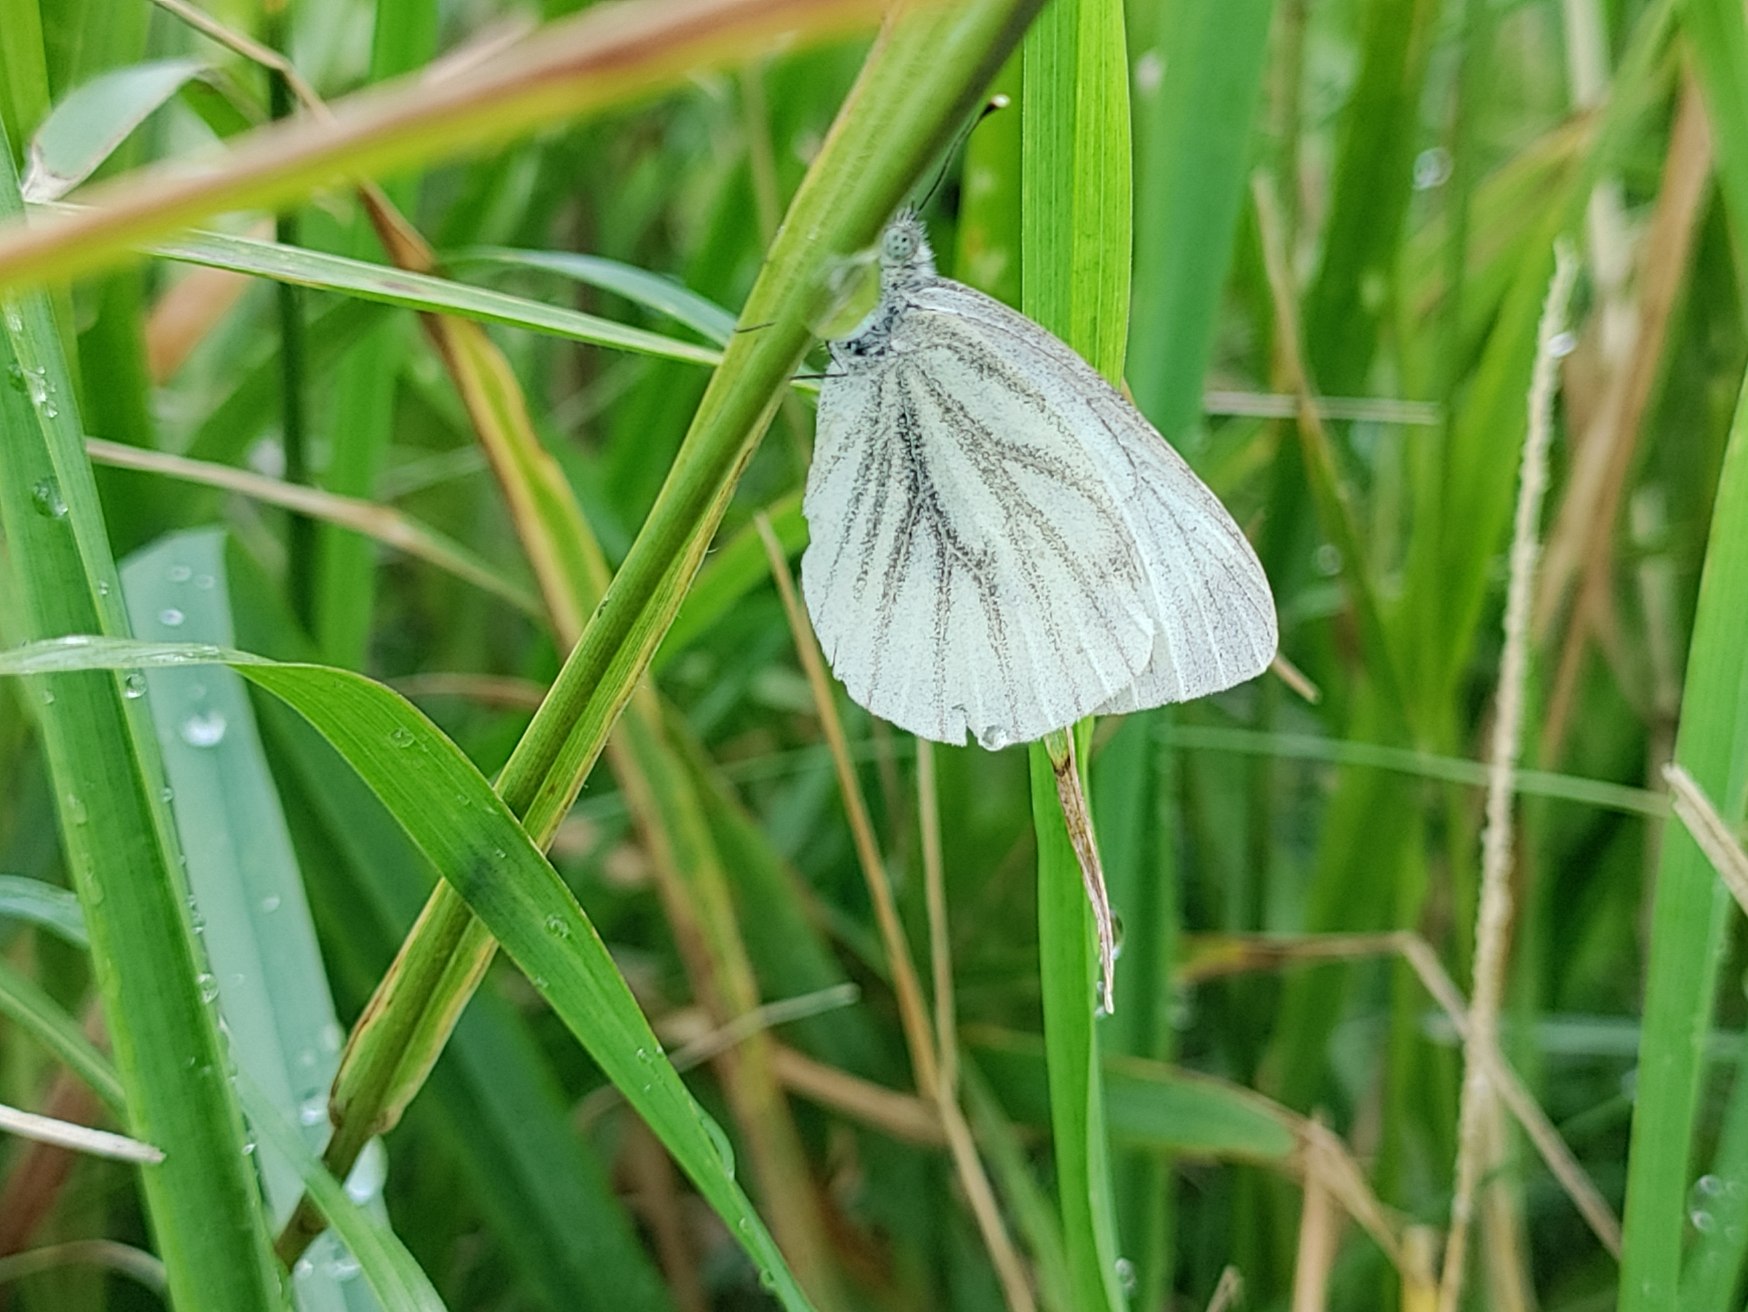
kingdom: Animalia
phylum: Arthropoda
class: Insecta
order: Lepidoptera
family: Pieridae
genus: Pieris
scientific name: Pieris napi
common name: Grønåret kålsommerfugl
